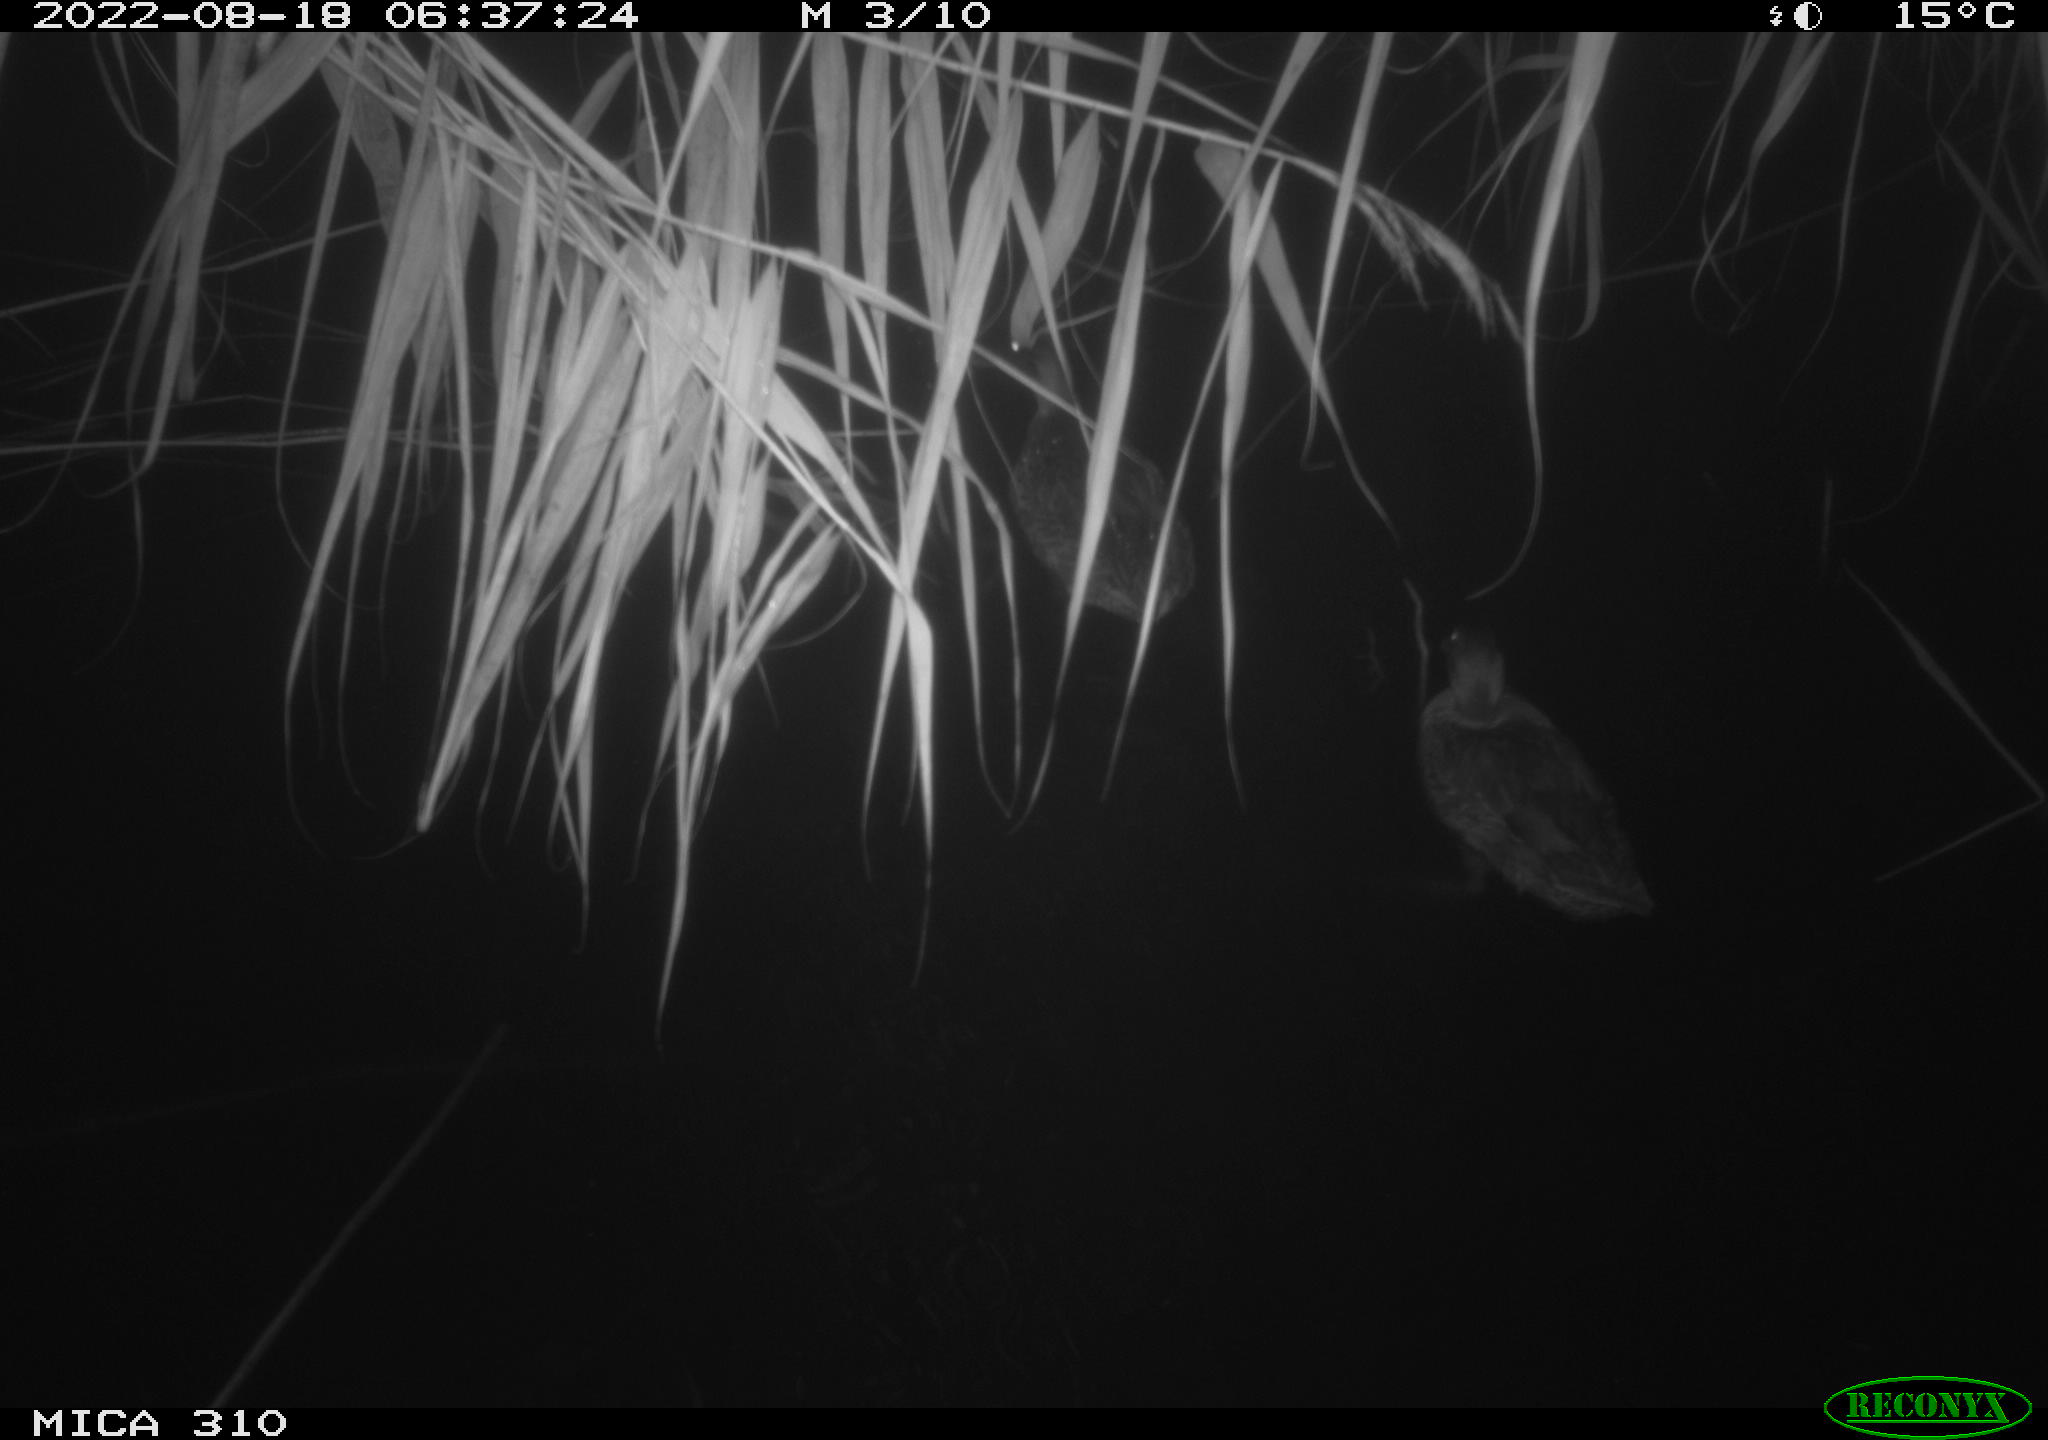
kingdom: Animalia
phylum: Chordata
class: Aves
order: Gruiformes
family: Rallidae
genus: Gallinula
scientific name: Gallinula chloropus
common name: Common moorhen
